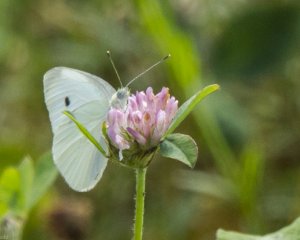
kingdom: Animalia
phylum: Arthropoda
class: Insecta
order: Lepidoptera
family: Pieridae
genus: Pieris
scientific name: Pieris rapae
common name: Cabbage White
